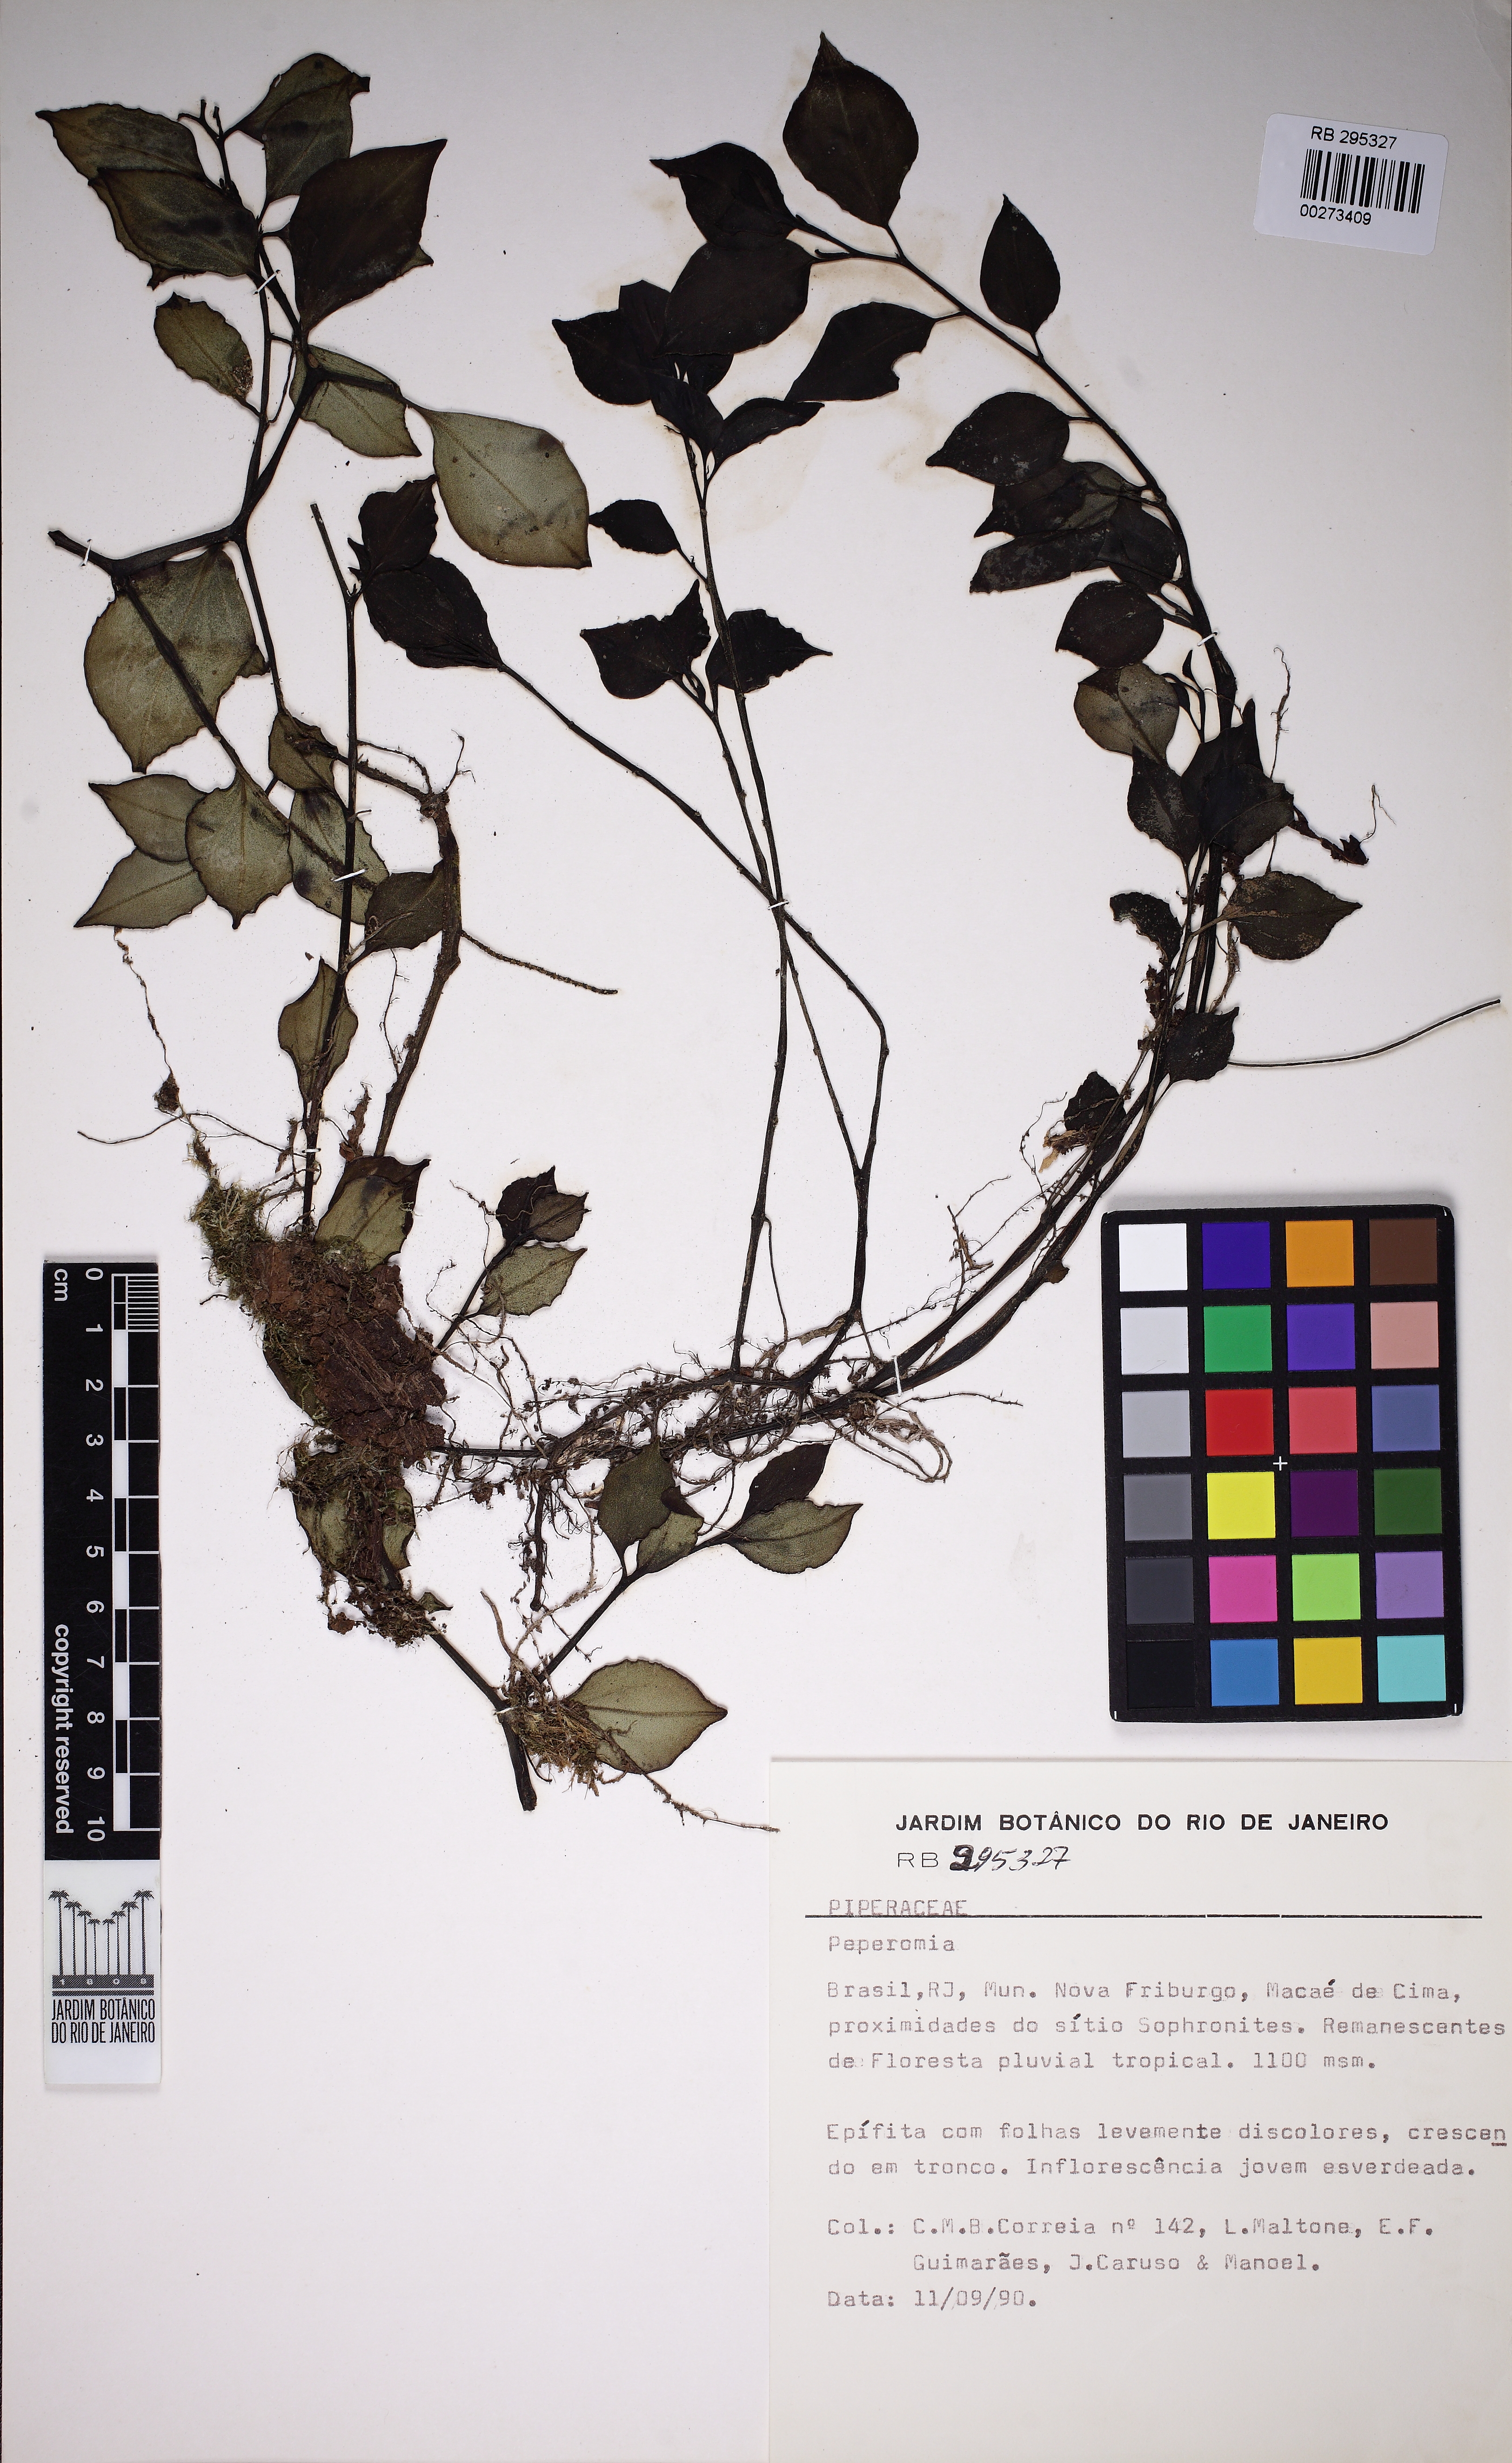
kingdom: Plantae
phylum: Tracheophyta
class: Magnoliopsida
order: Piperales
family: Piperaceae
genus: Peperomia
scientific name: Peperomia
